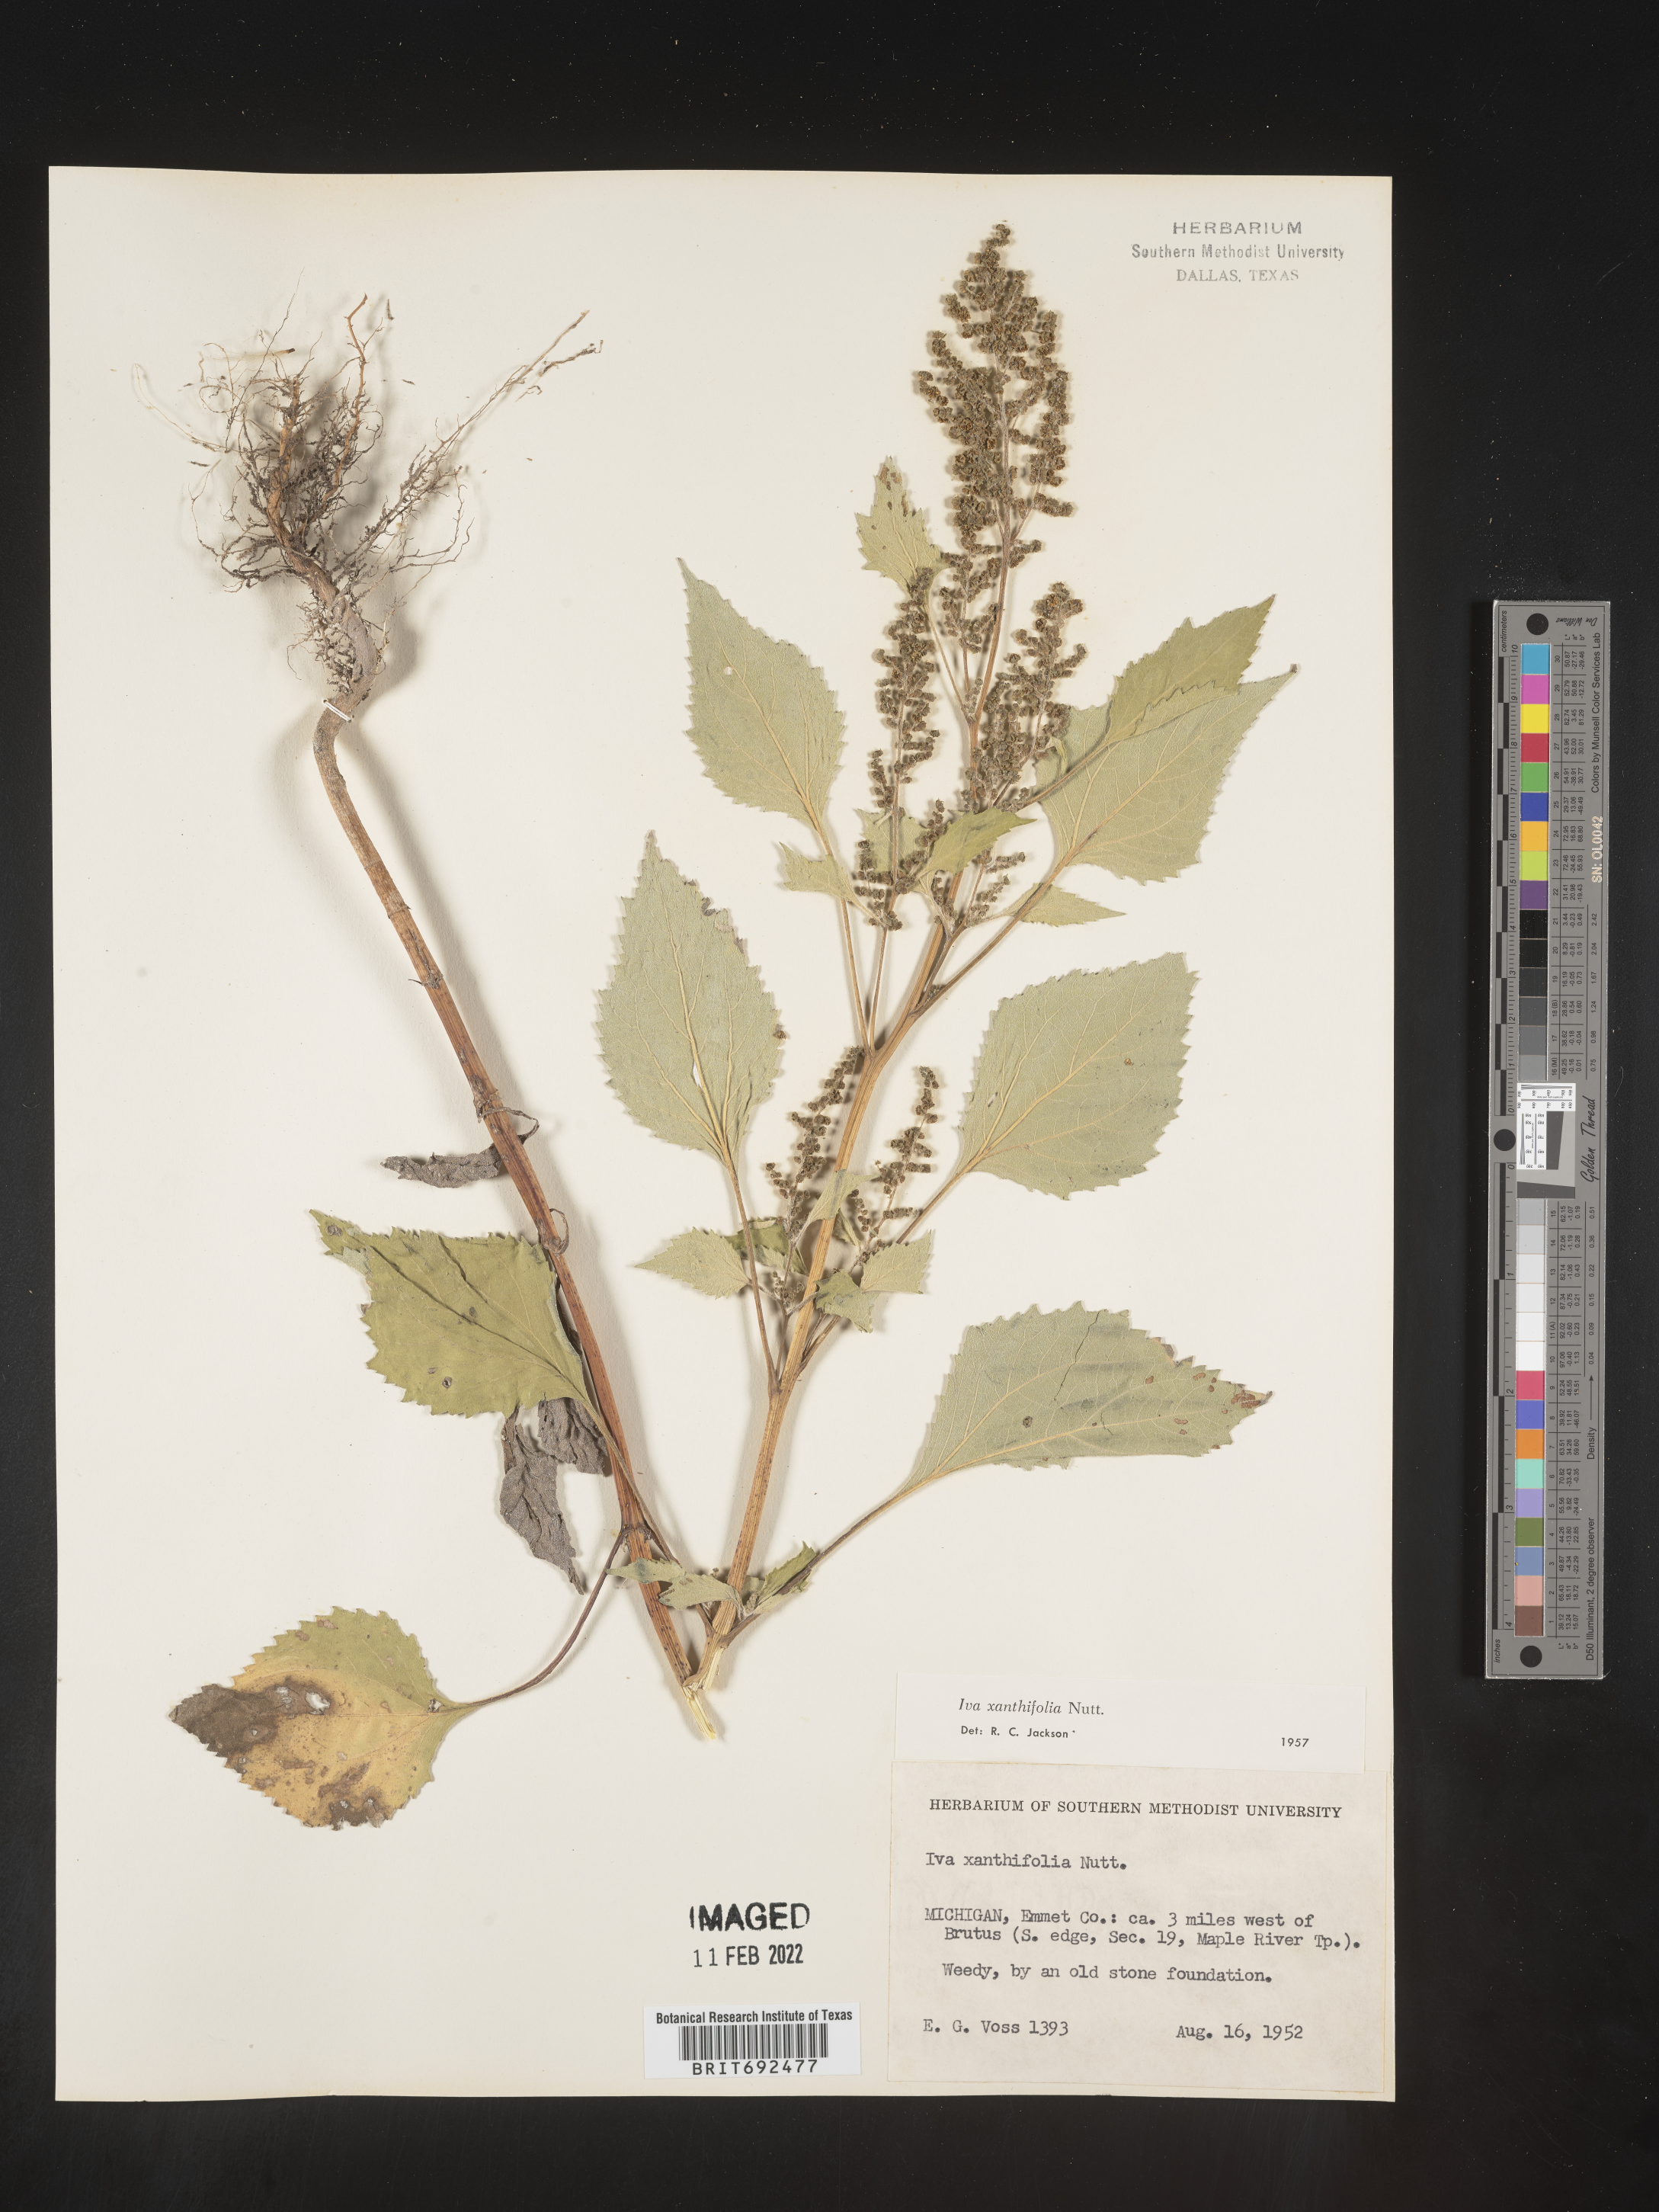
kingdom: Plantae
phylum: Tracheophyta
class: Magnoliopsida
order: Asterales
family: Asteraceae
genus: Cyclachaena
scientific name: Cyclachaena
